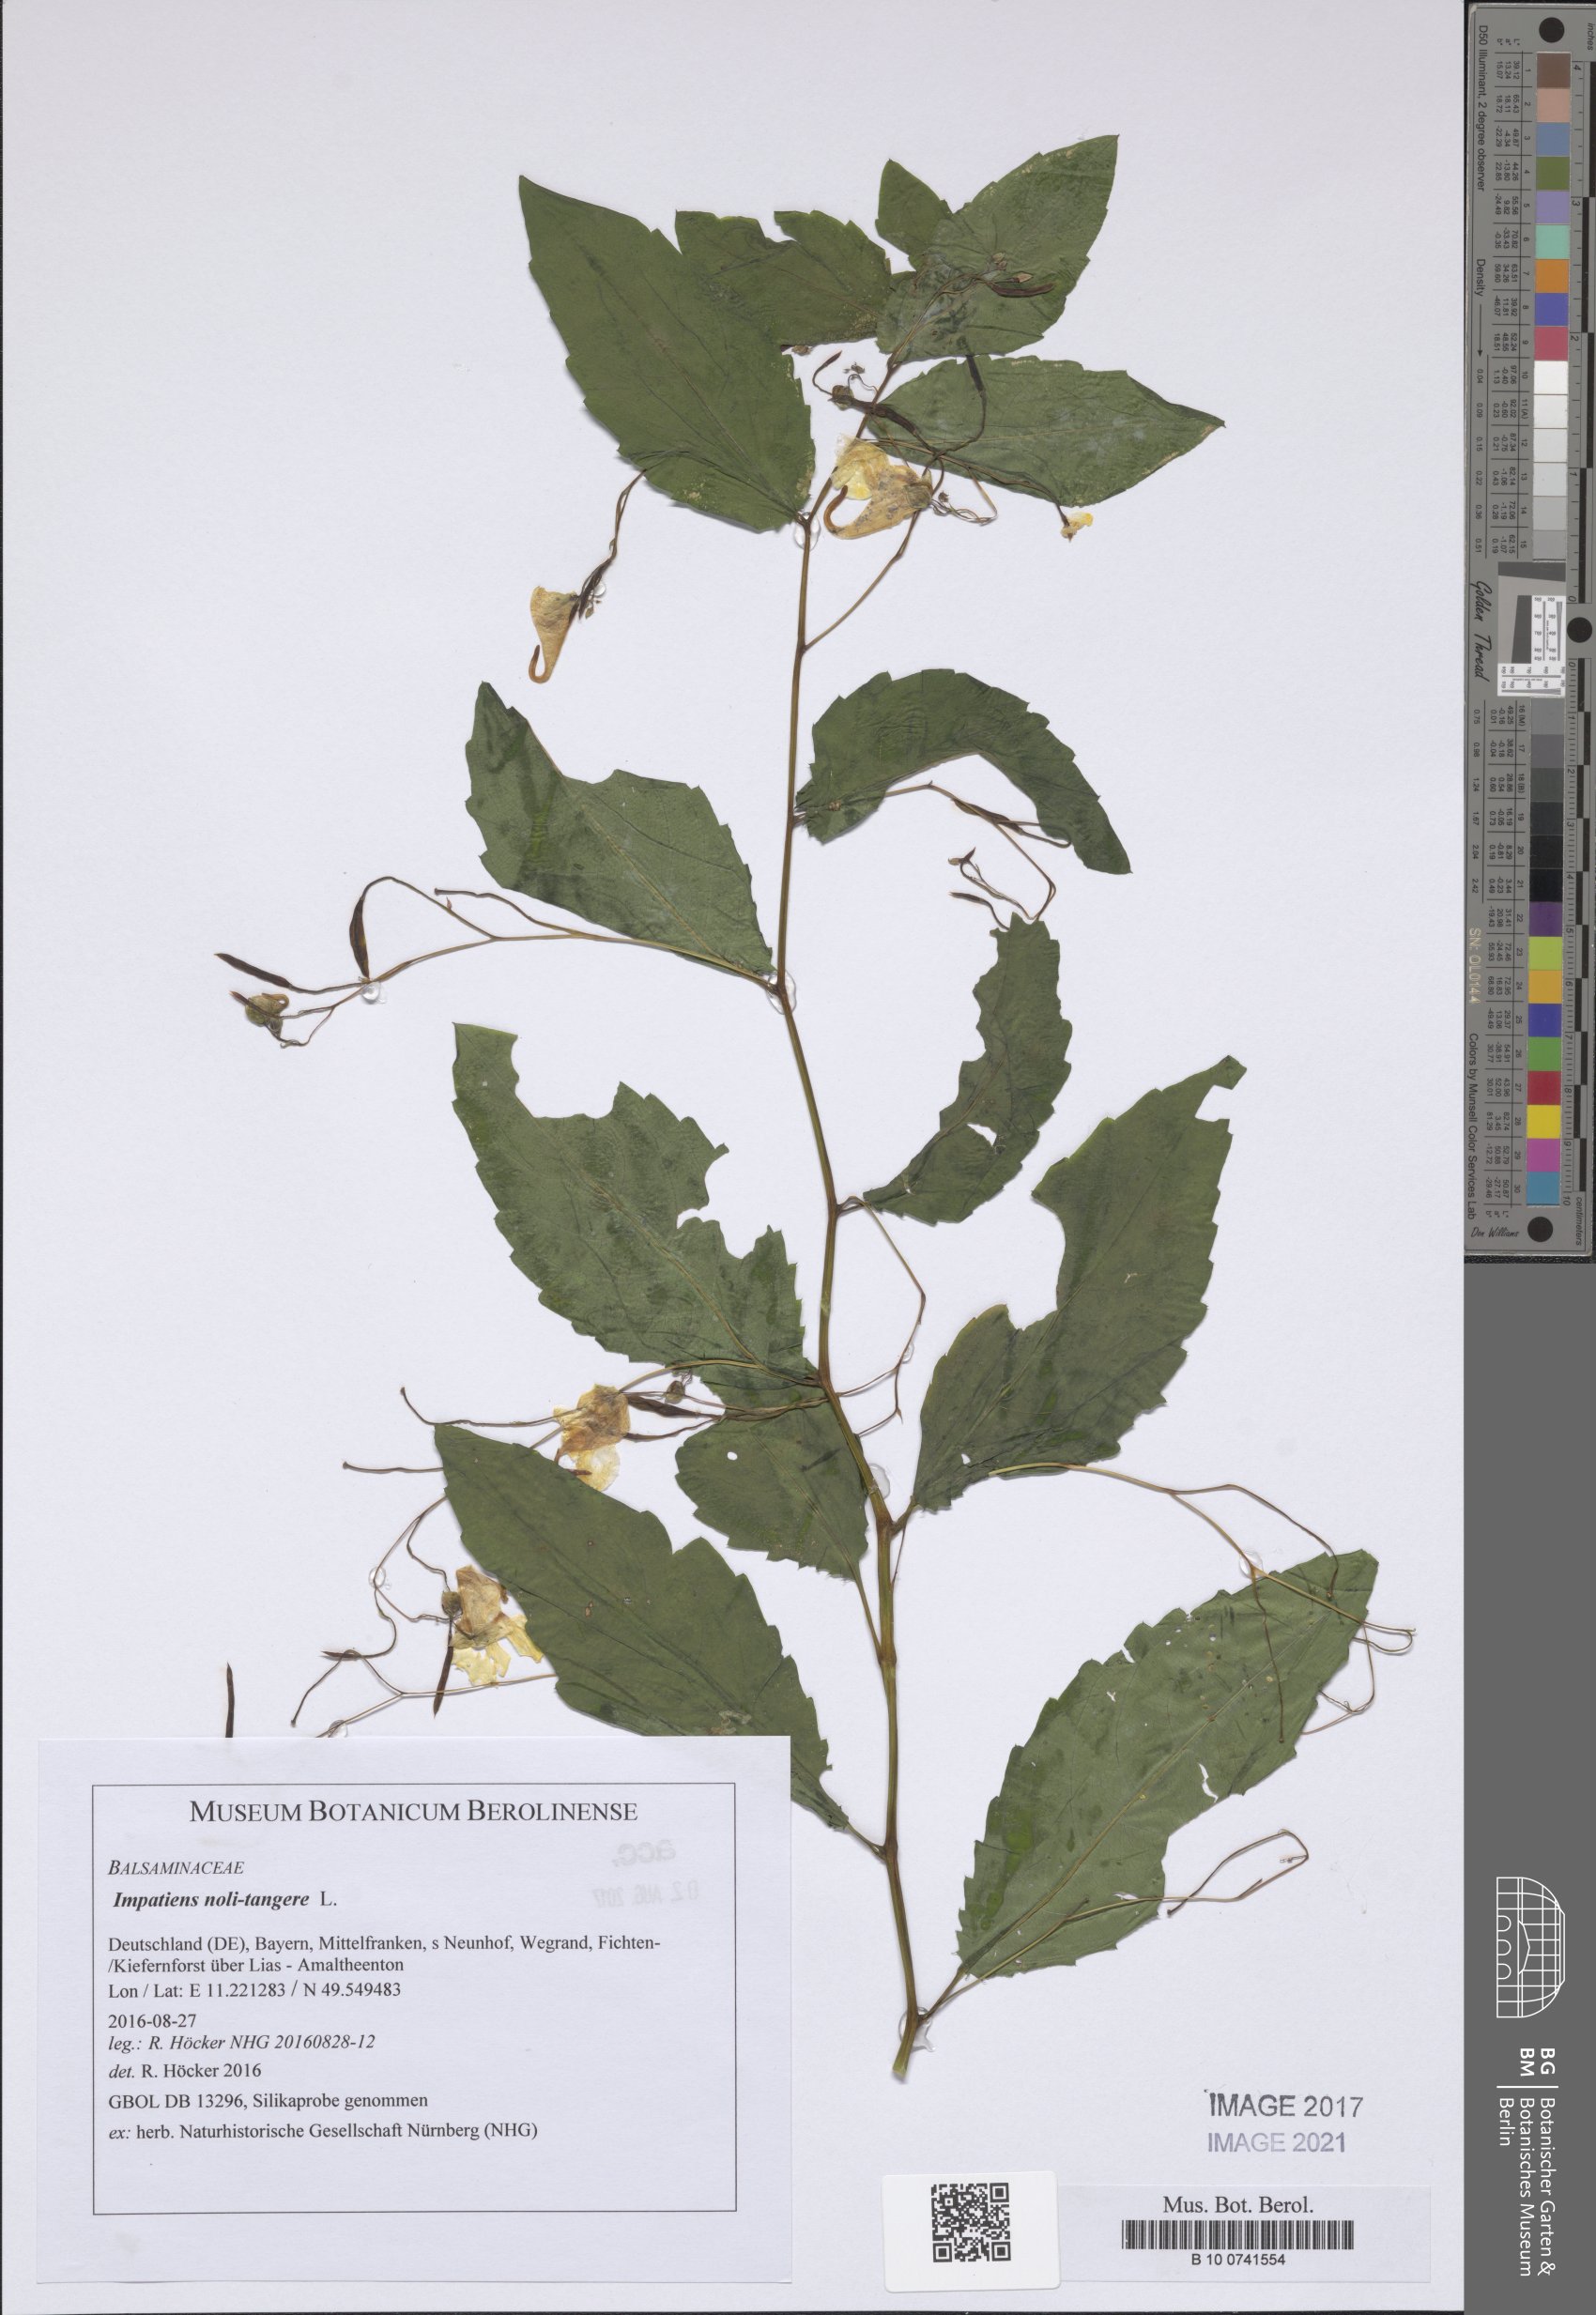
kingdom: Plantae
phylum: Tracheophyta
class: Magnoliopsida
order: Ericales
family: Balsaminaceae
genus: Impatiens
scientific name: Impatiens noli-tangere
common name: Touch-me-not balsam
